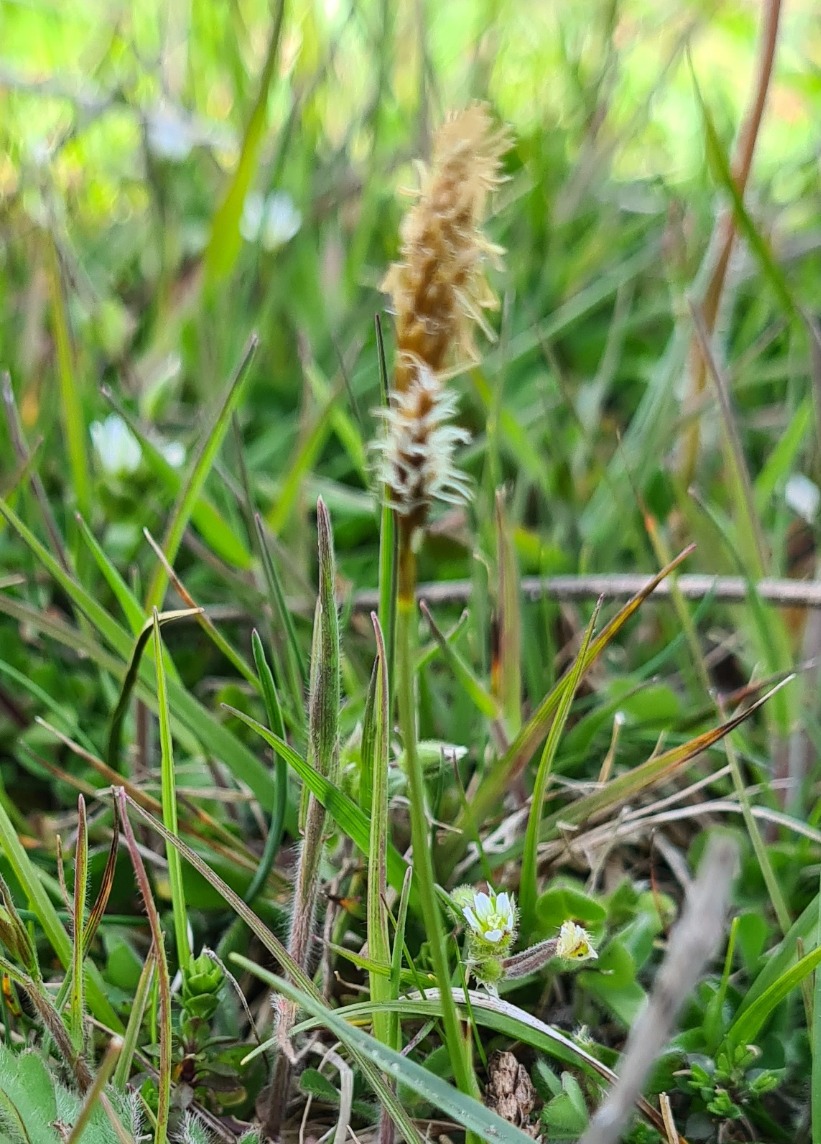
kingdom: Plantae
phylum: Tracheophyta
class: Liliopsida
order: Poales
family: Cyperaceae
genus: Carex
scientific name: Carex caryophyllea
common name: Vår-star
